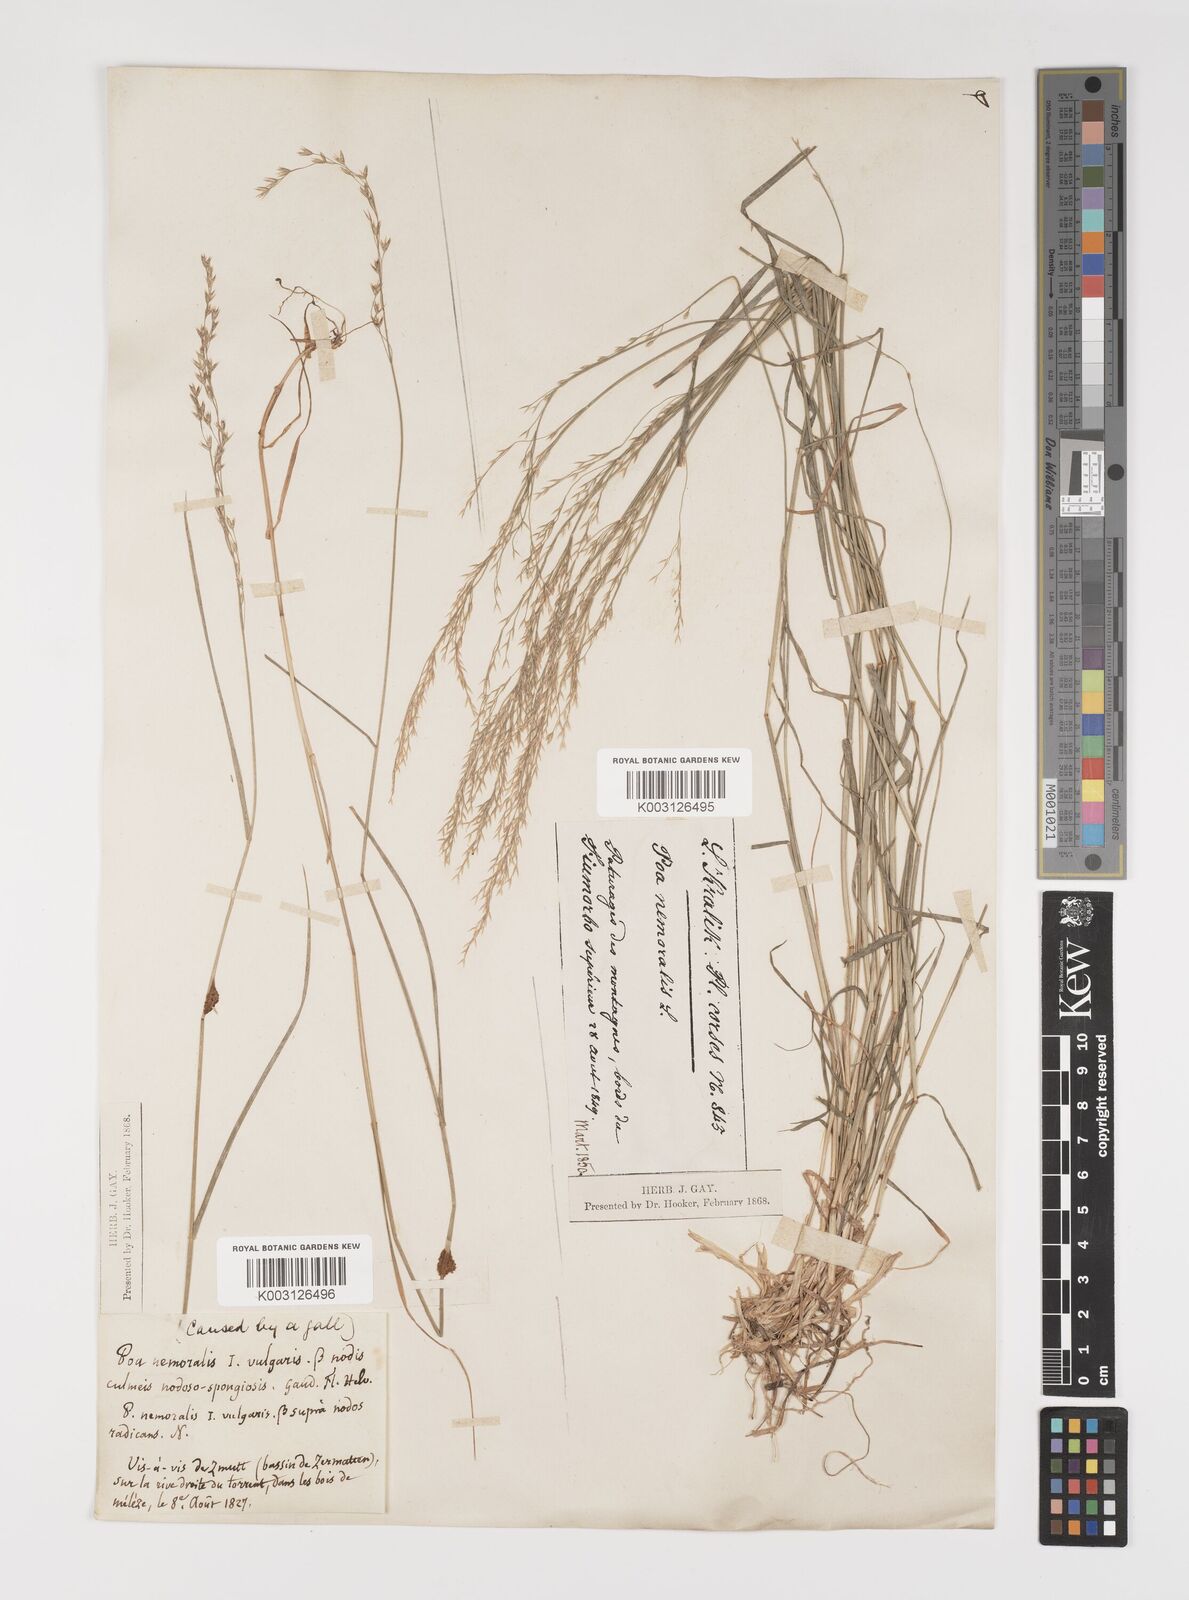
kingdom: Plantae
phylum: Tracheophyta
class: Liliopsida
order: Poales
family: Poaceae
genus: Poa
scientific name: Poa nemoralis
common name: Wood bluegrass
